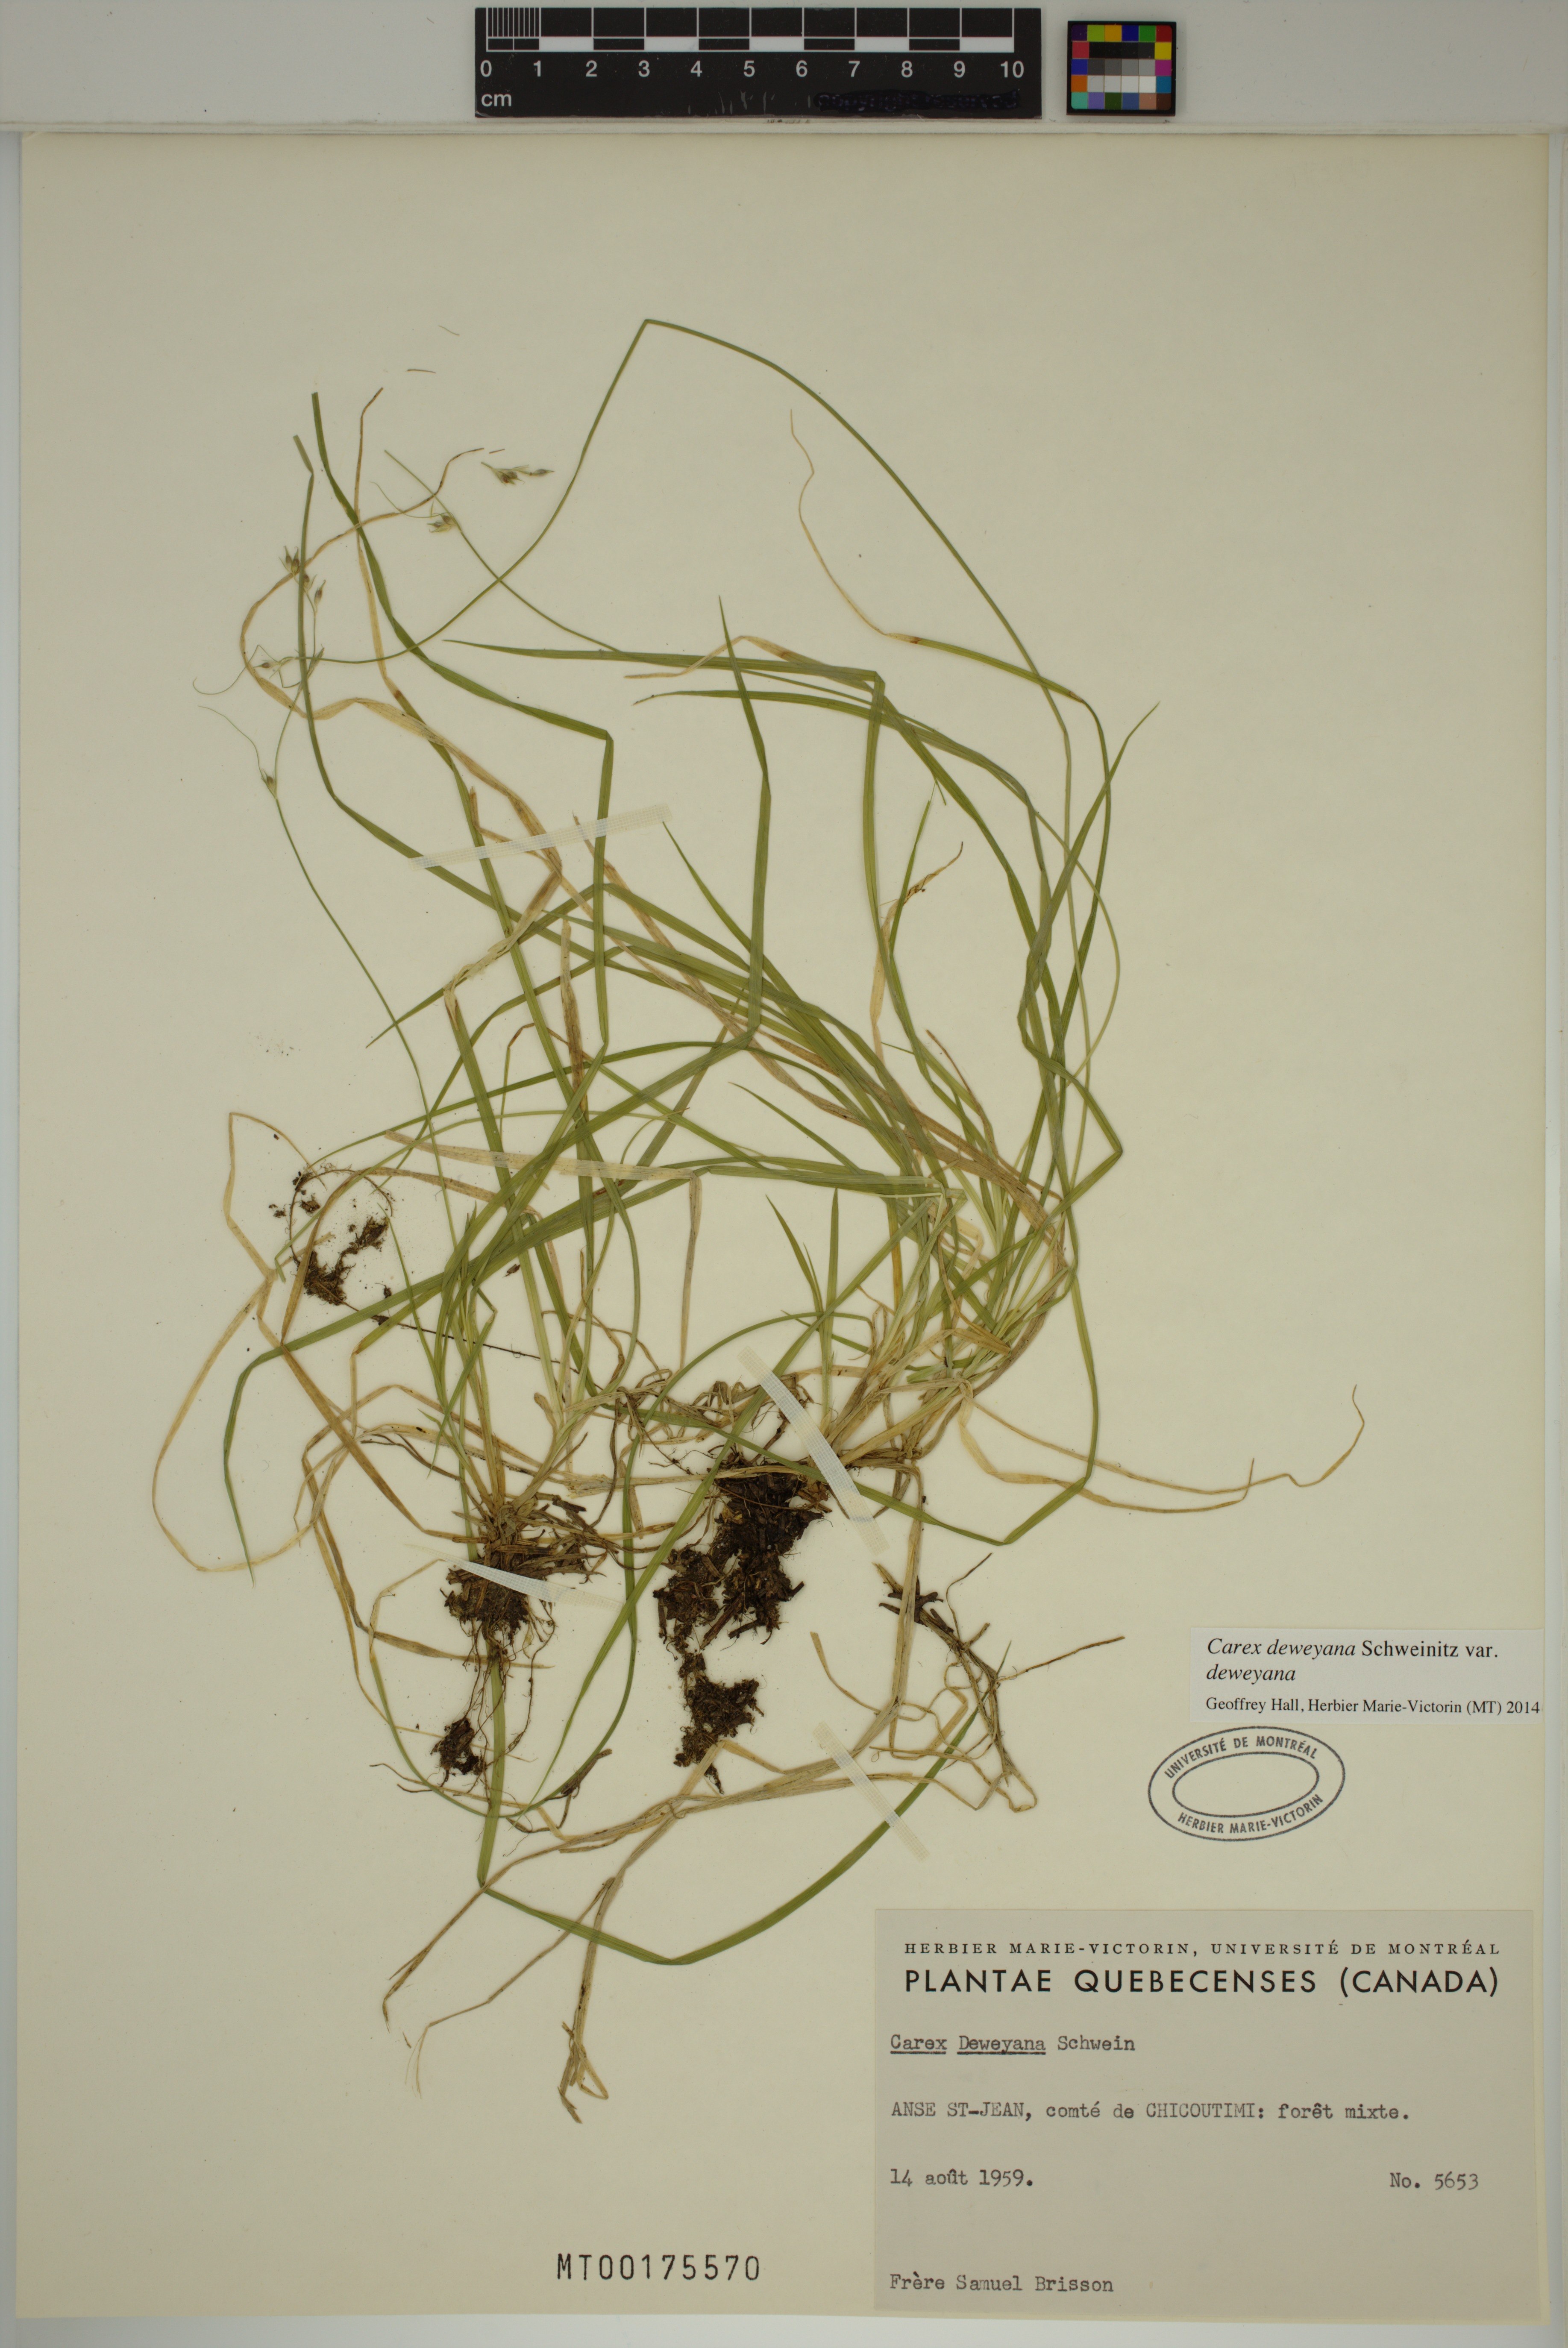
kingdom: Plantae
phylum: Tracheophyta
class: Liliopsida
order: Poales
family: Cyperaceae
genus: Carex
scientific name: Carex deweyana
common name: Dewey's sedge
